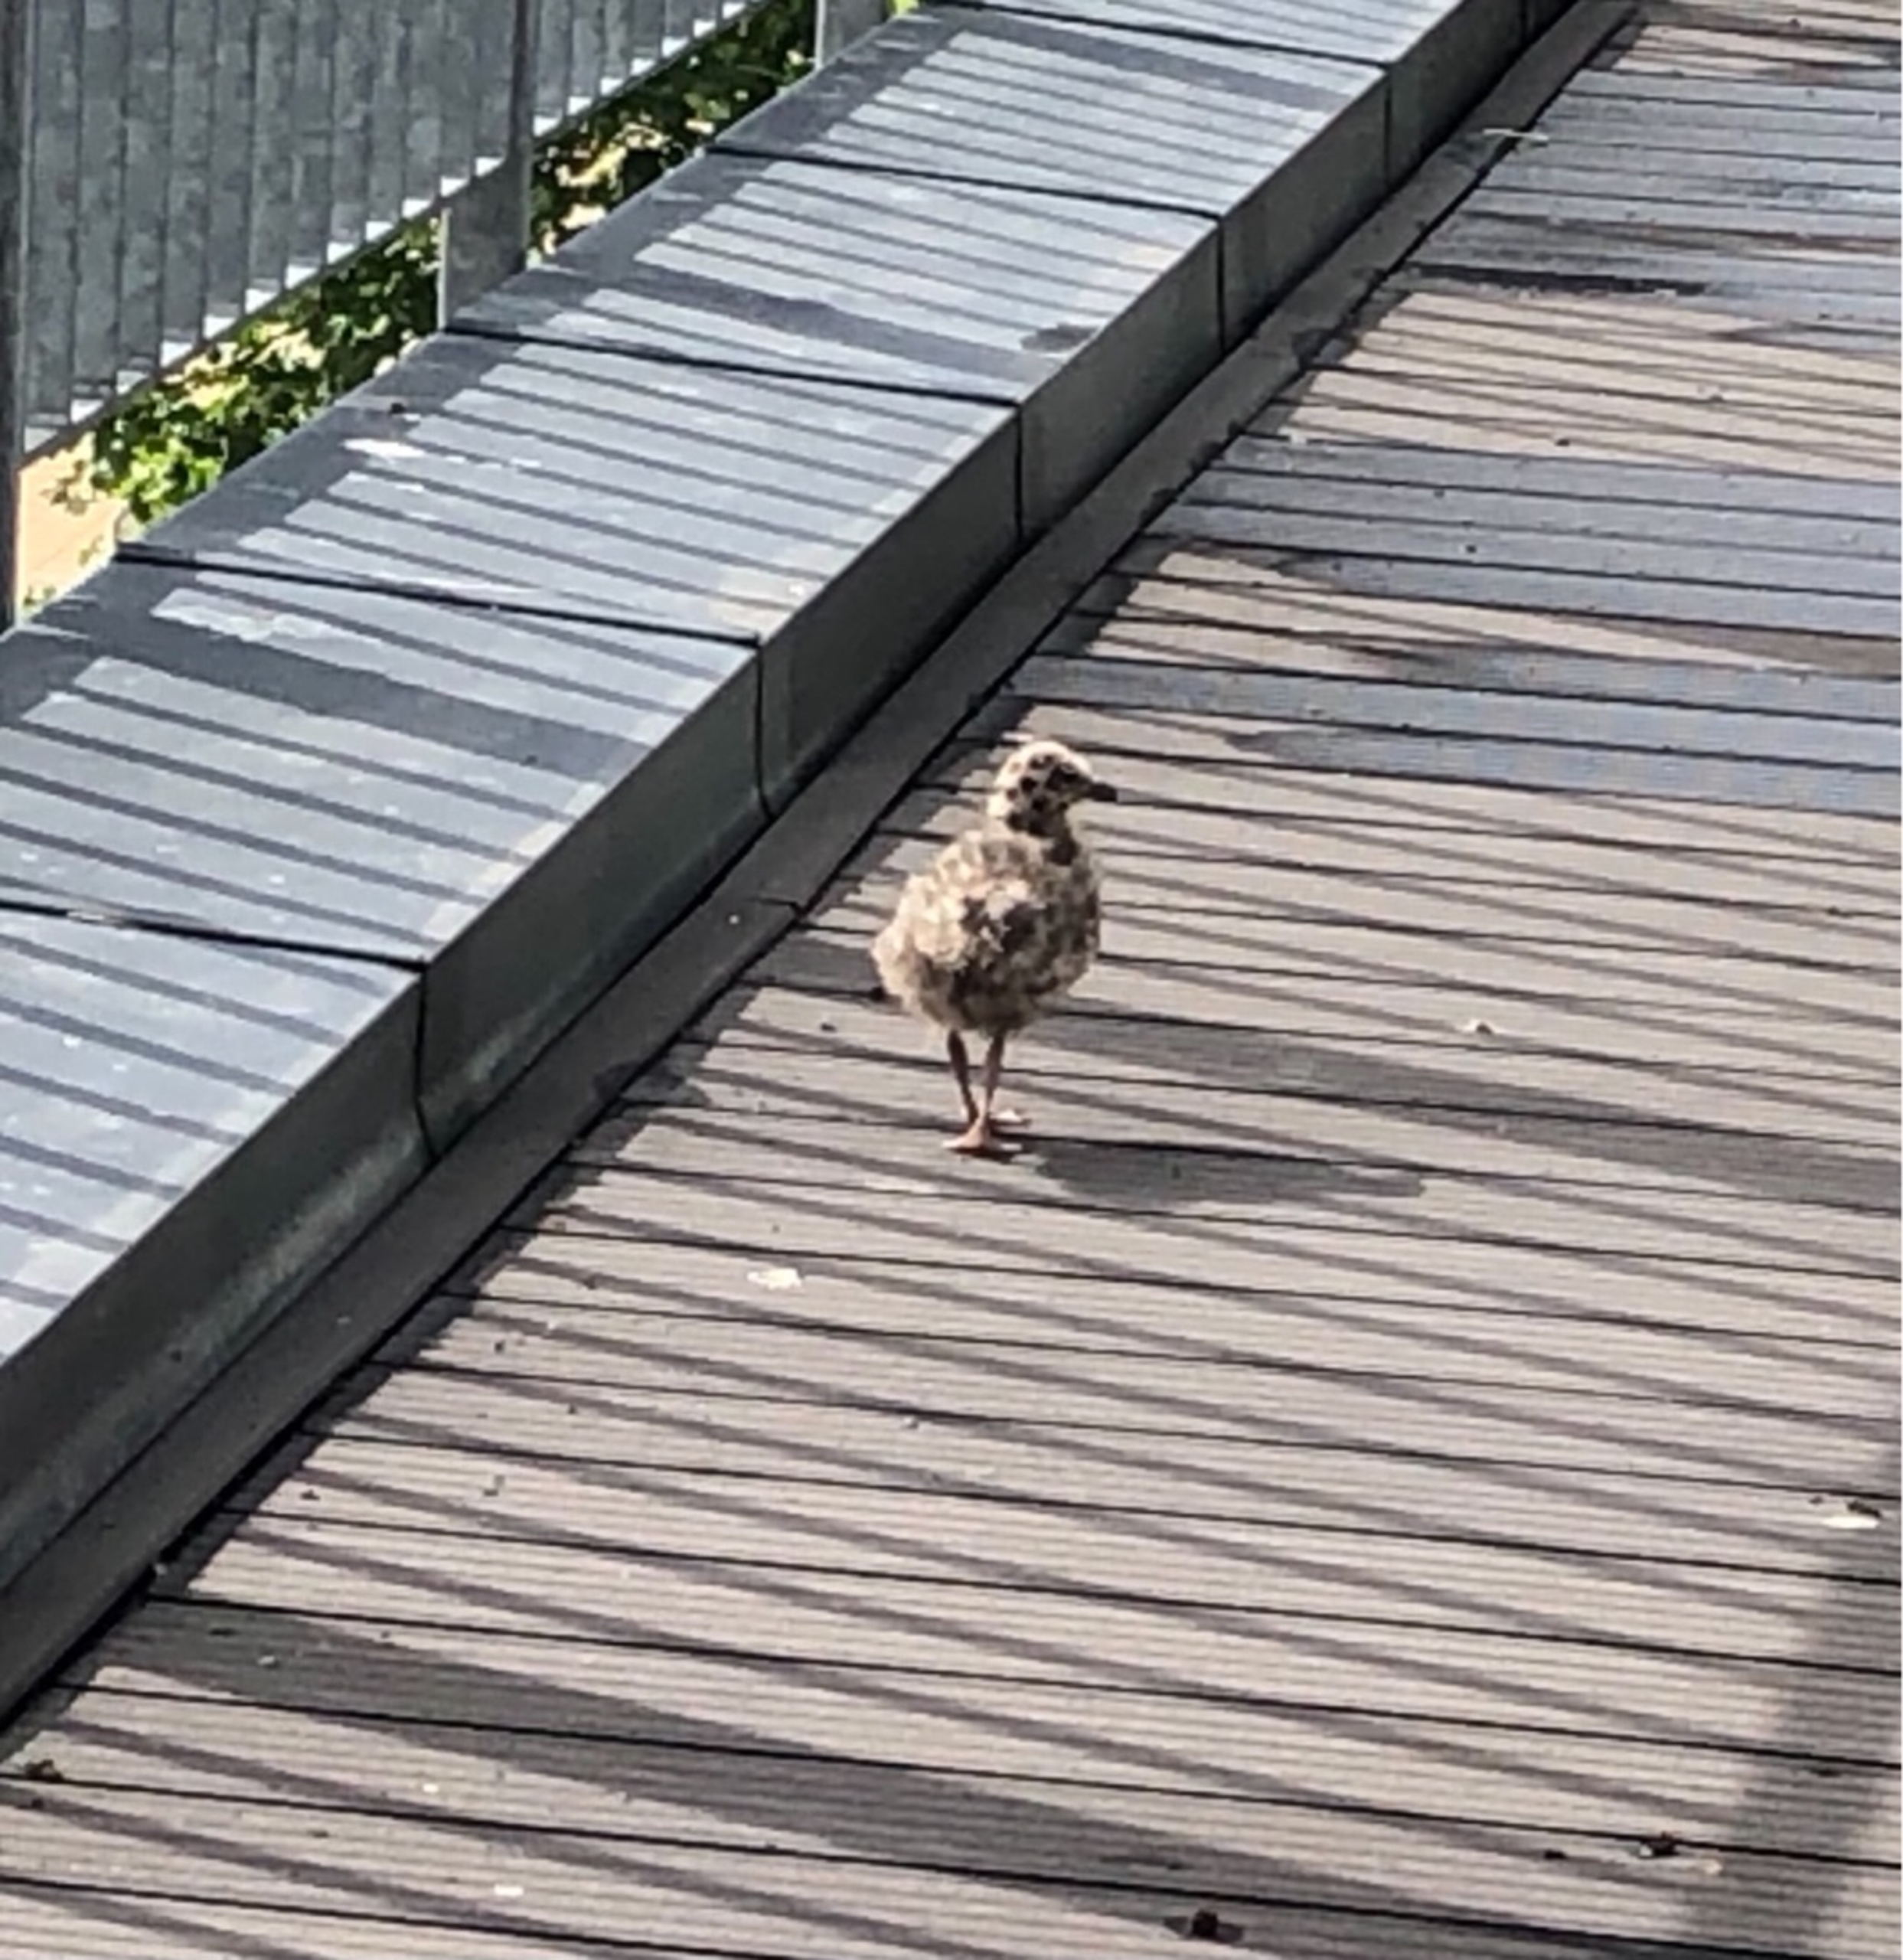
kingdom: Animalia
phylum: Chordata
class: Aves
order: Charadriiformes
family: Laridae
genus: Larus
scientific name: Larus argentatus
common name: Sølvmåge
